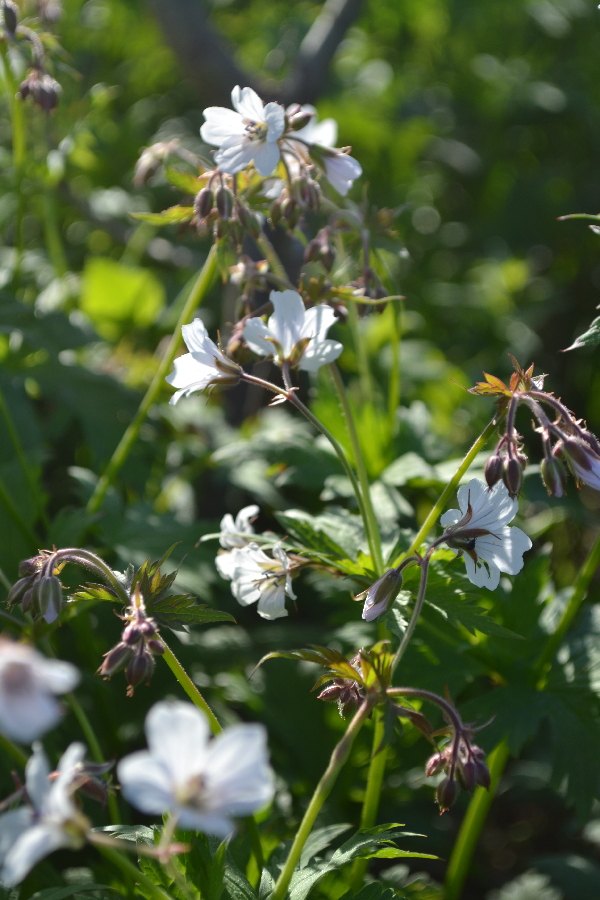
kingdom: Plantae
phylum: Tracheophyta
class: Magnoliopsida
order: Geraniales
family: Geraniaceae
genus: Geranium
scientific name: Geranium sylvaticum
